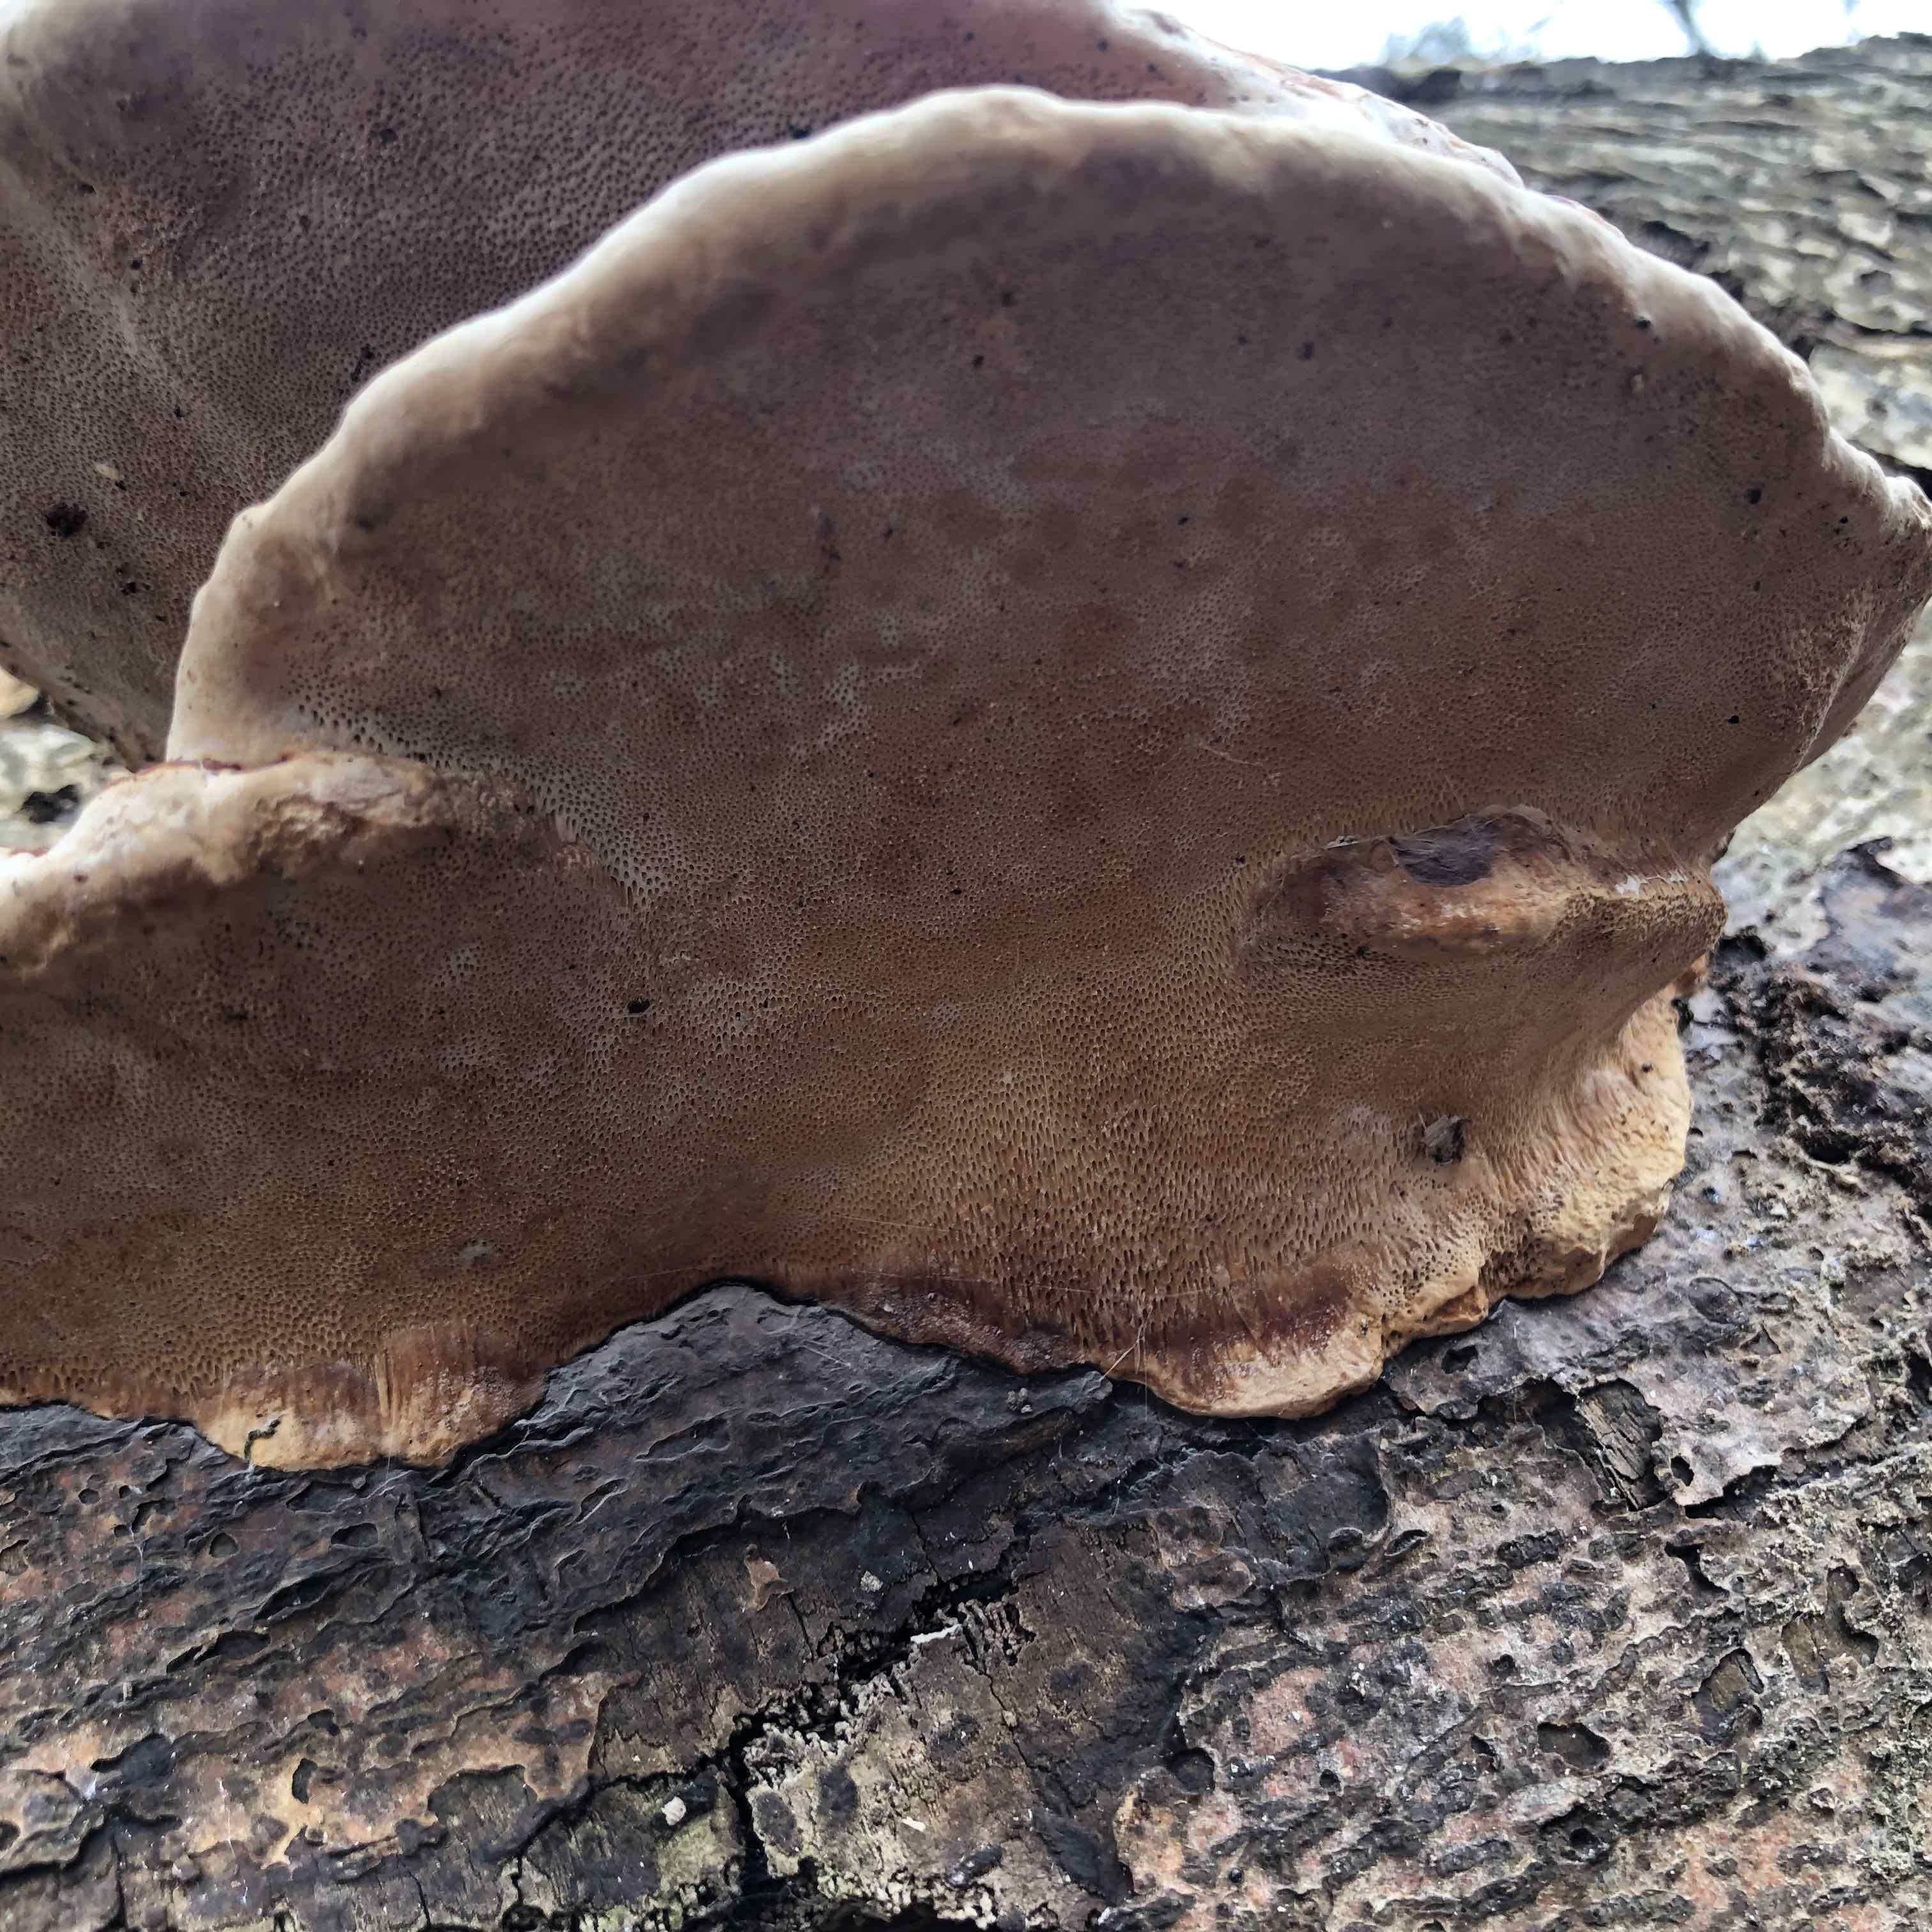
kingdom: Fungi
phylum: Basidiomycota
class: Agaricomycetes
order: Polyporales
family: Fomitopsidaceae
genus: Fomitopsis
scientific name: Fomitopsis pinicola
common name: randbæltet hovporesvamp
